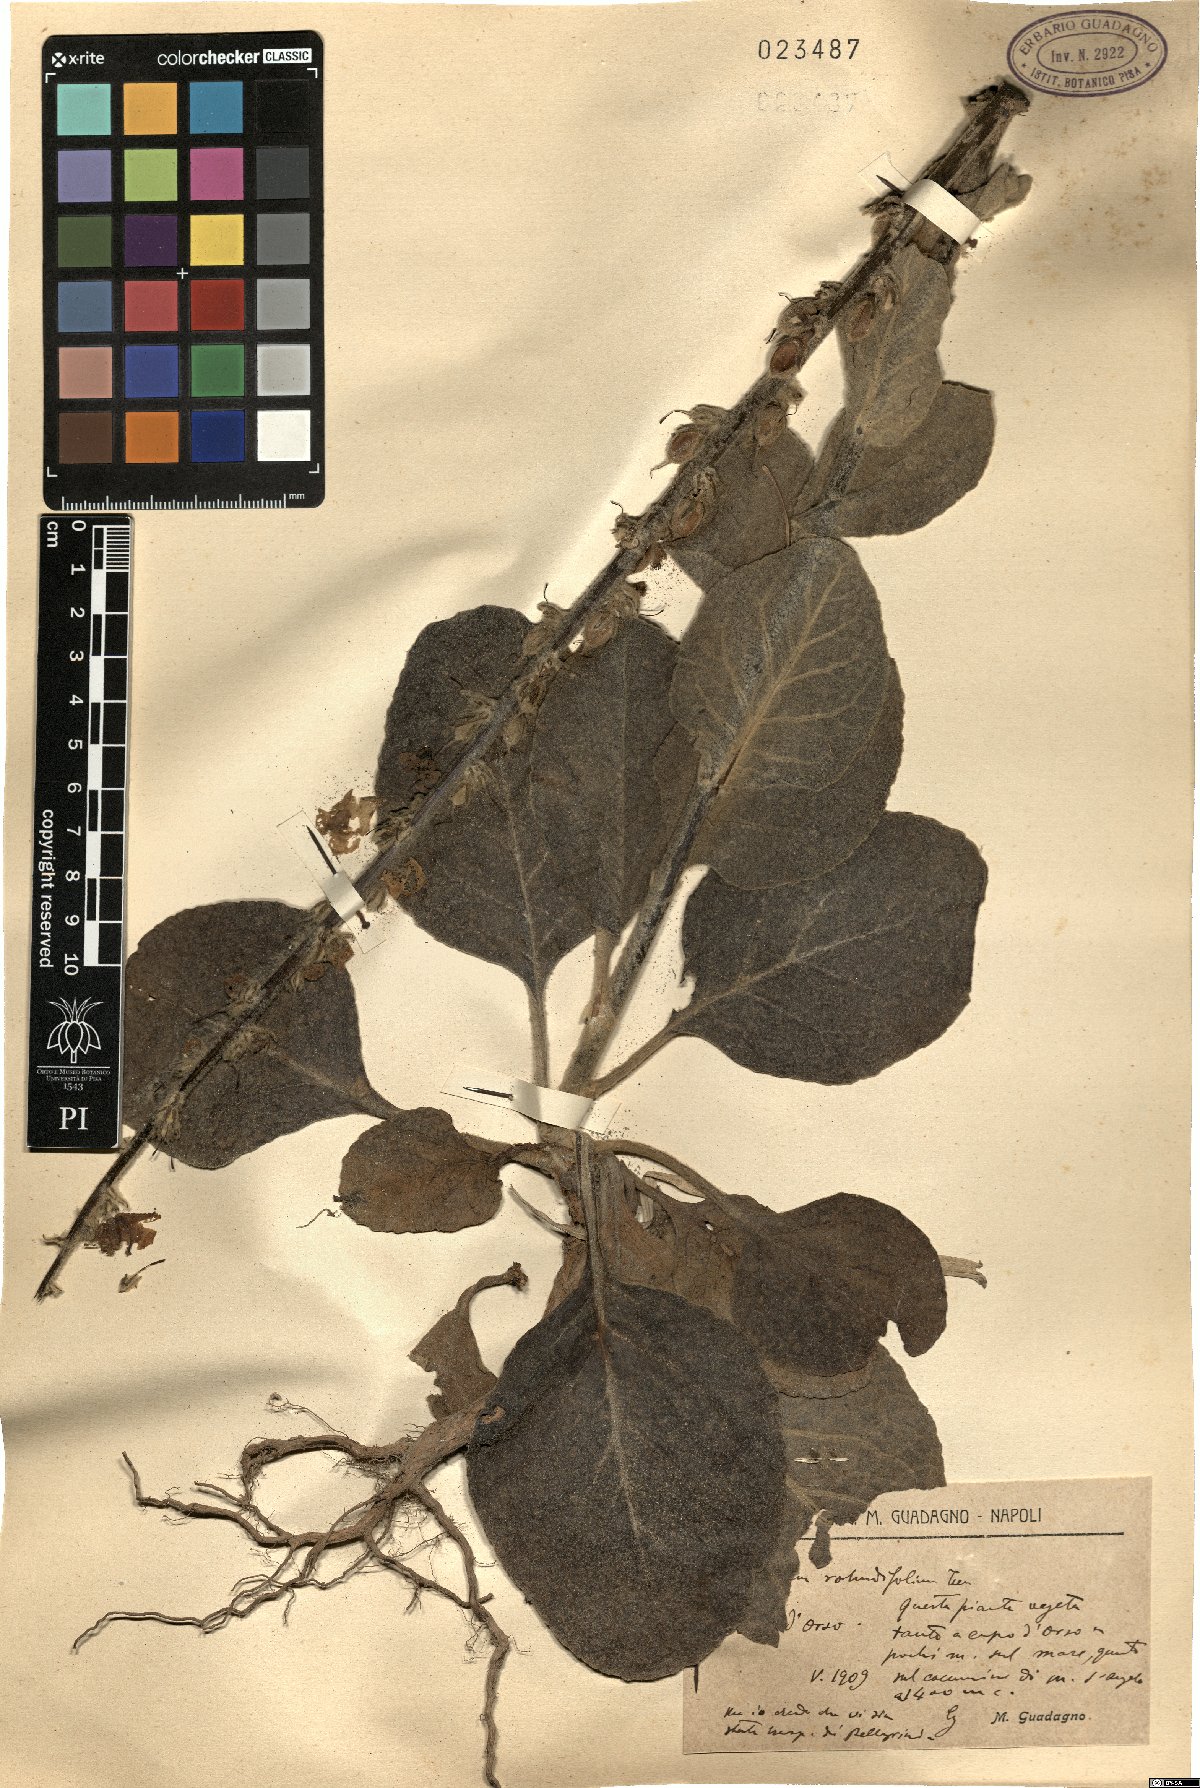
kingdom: Plantae
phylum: Tracheophyta
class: Magnoliopsida
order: Lamiales
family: Scrophulariaceae
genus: Verbascum
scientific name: Verbascum rotundifolium
